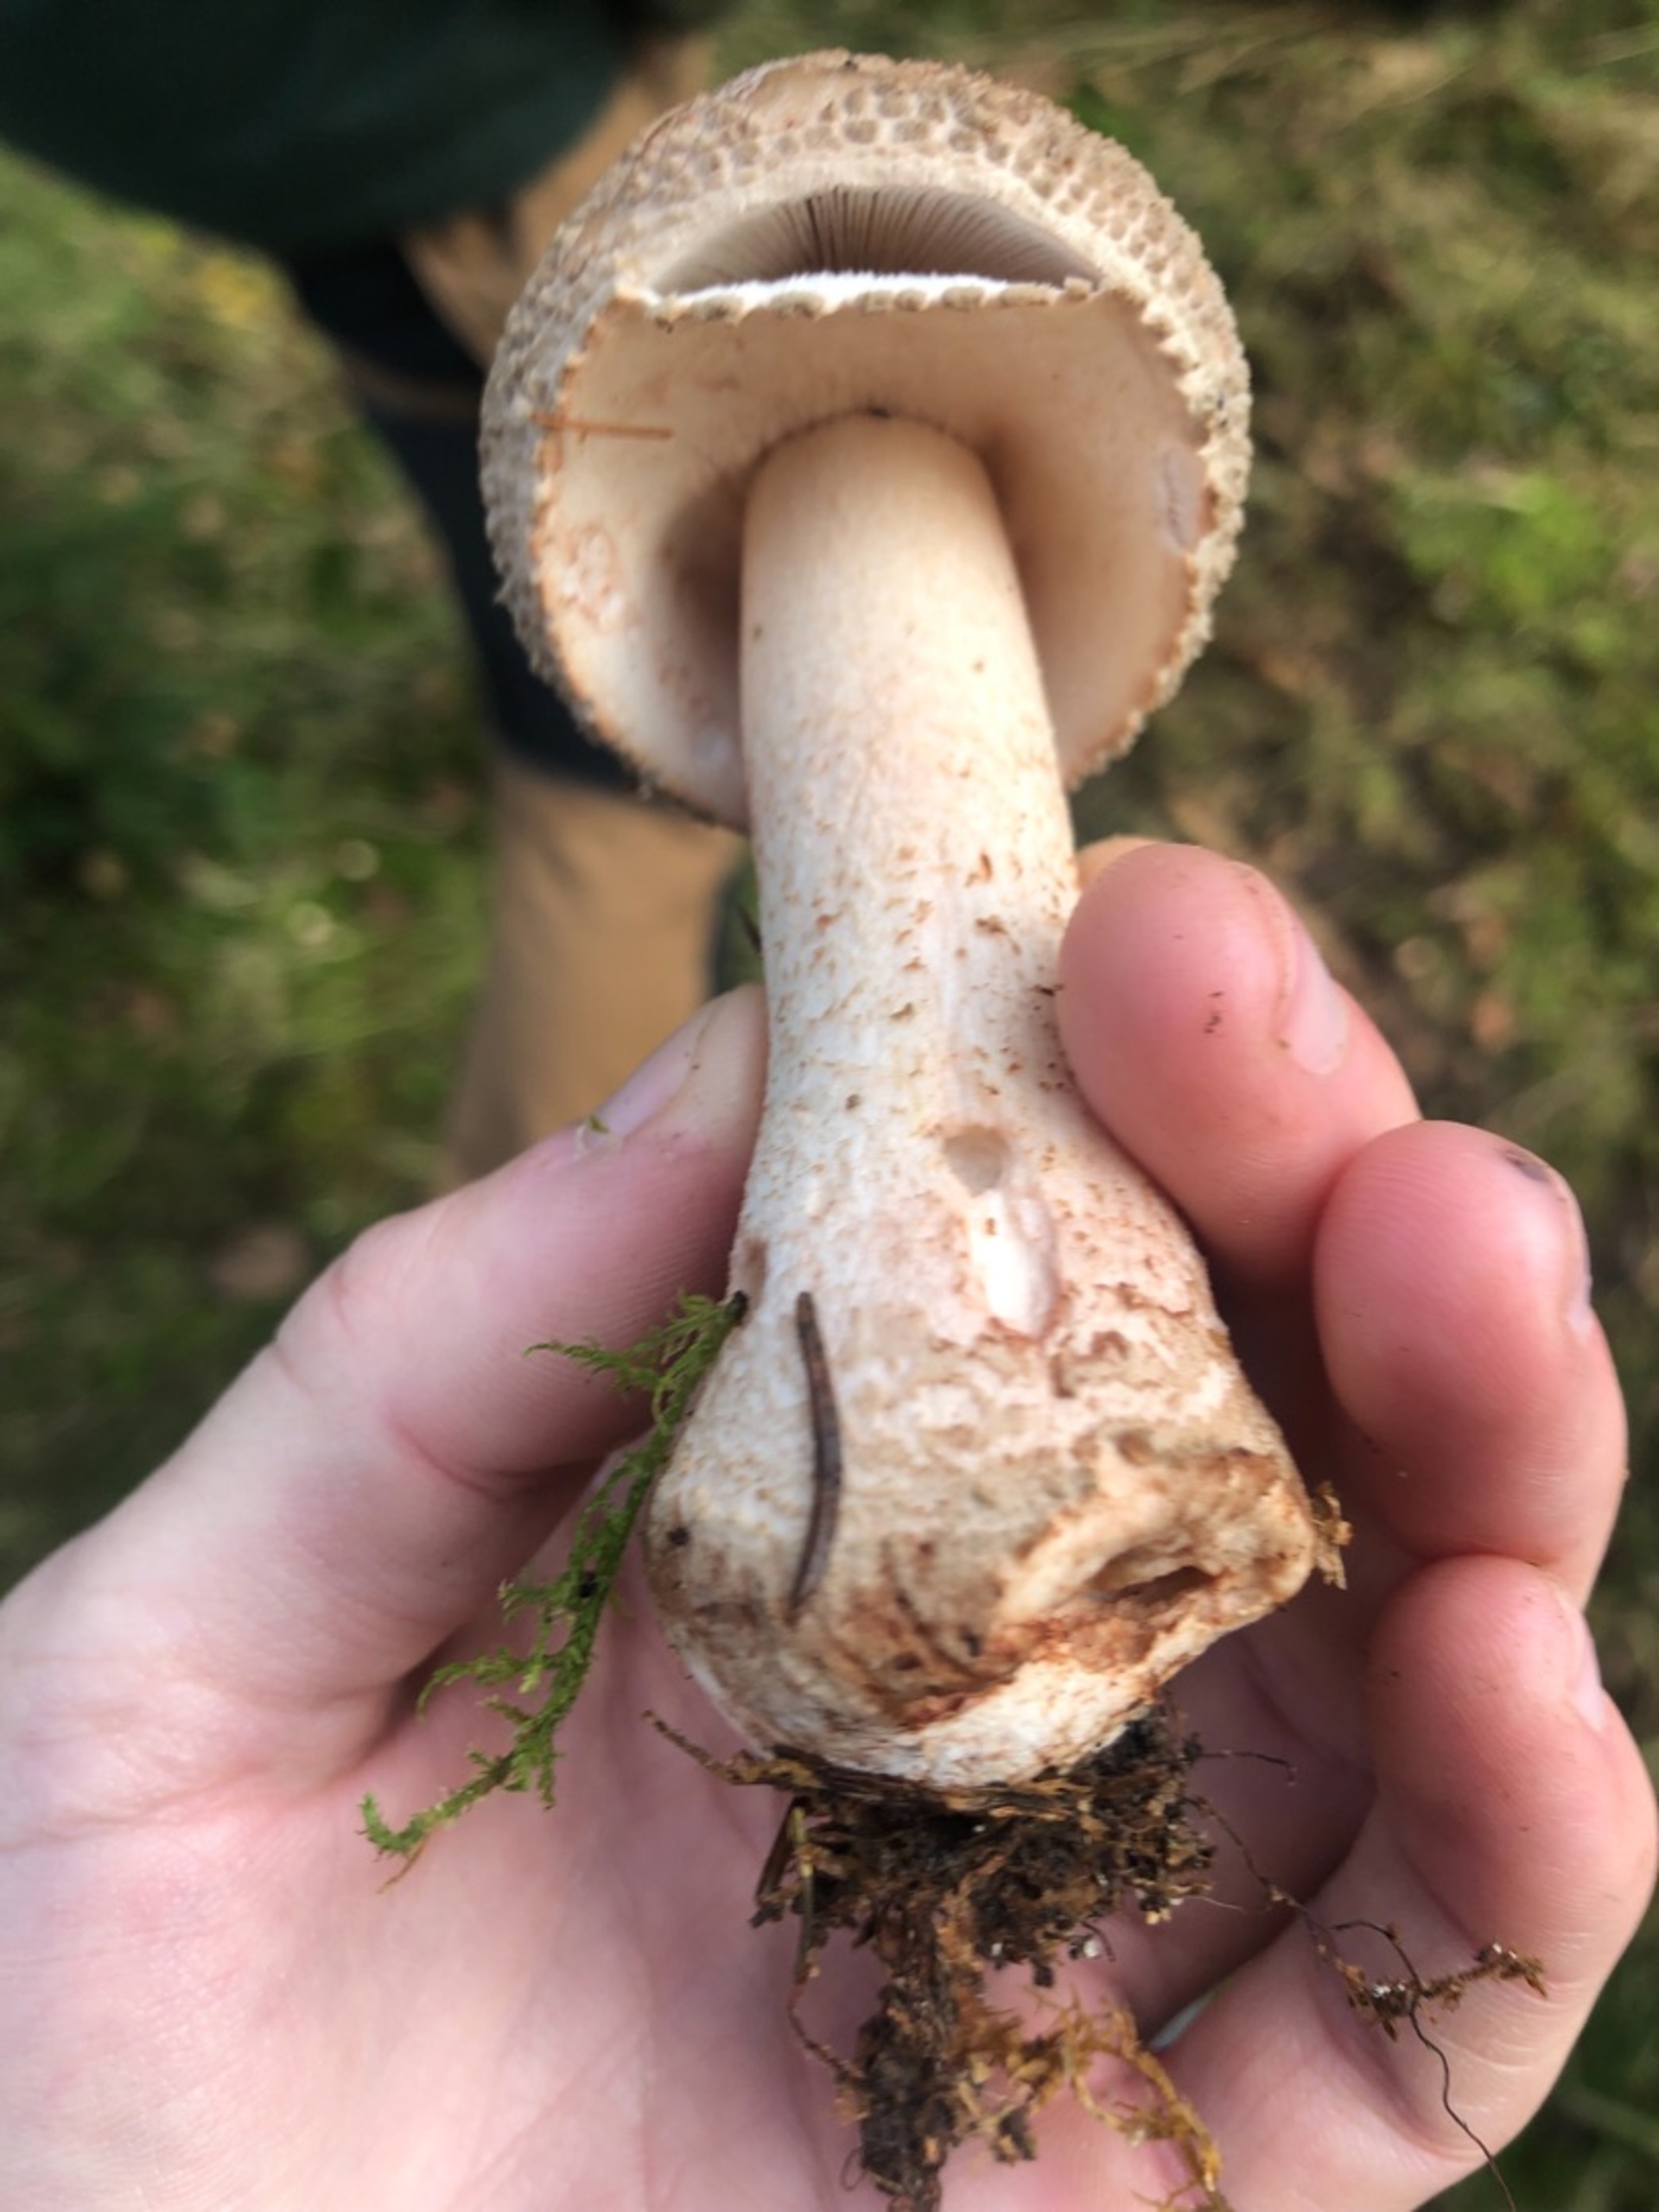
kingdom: Fungi
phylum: Basidiomycota
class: Agaricomycetes
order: Agaricales
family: Amanitaceae
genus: Amanita
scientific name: Amanita rubescens
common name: Rødmende fluesvamp
